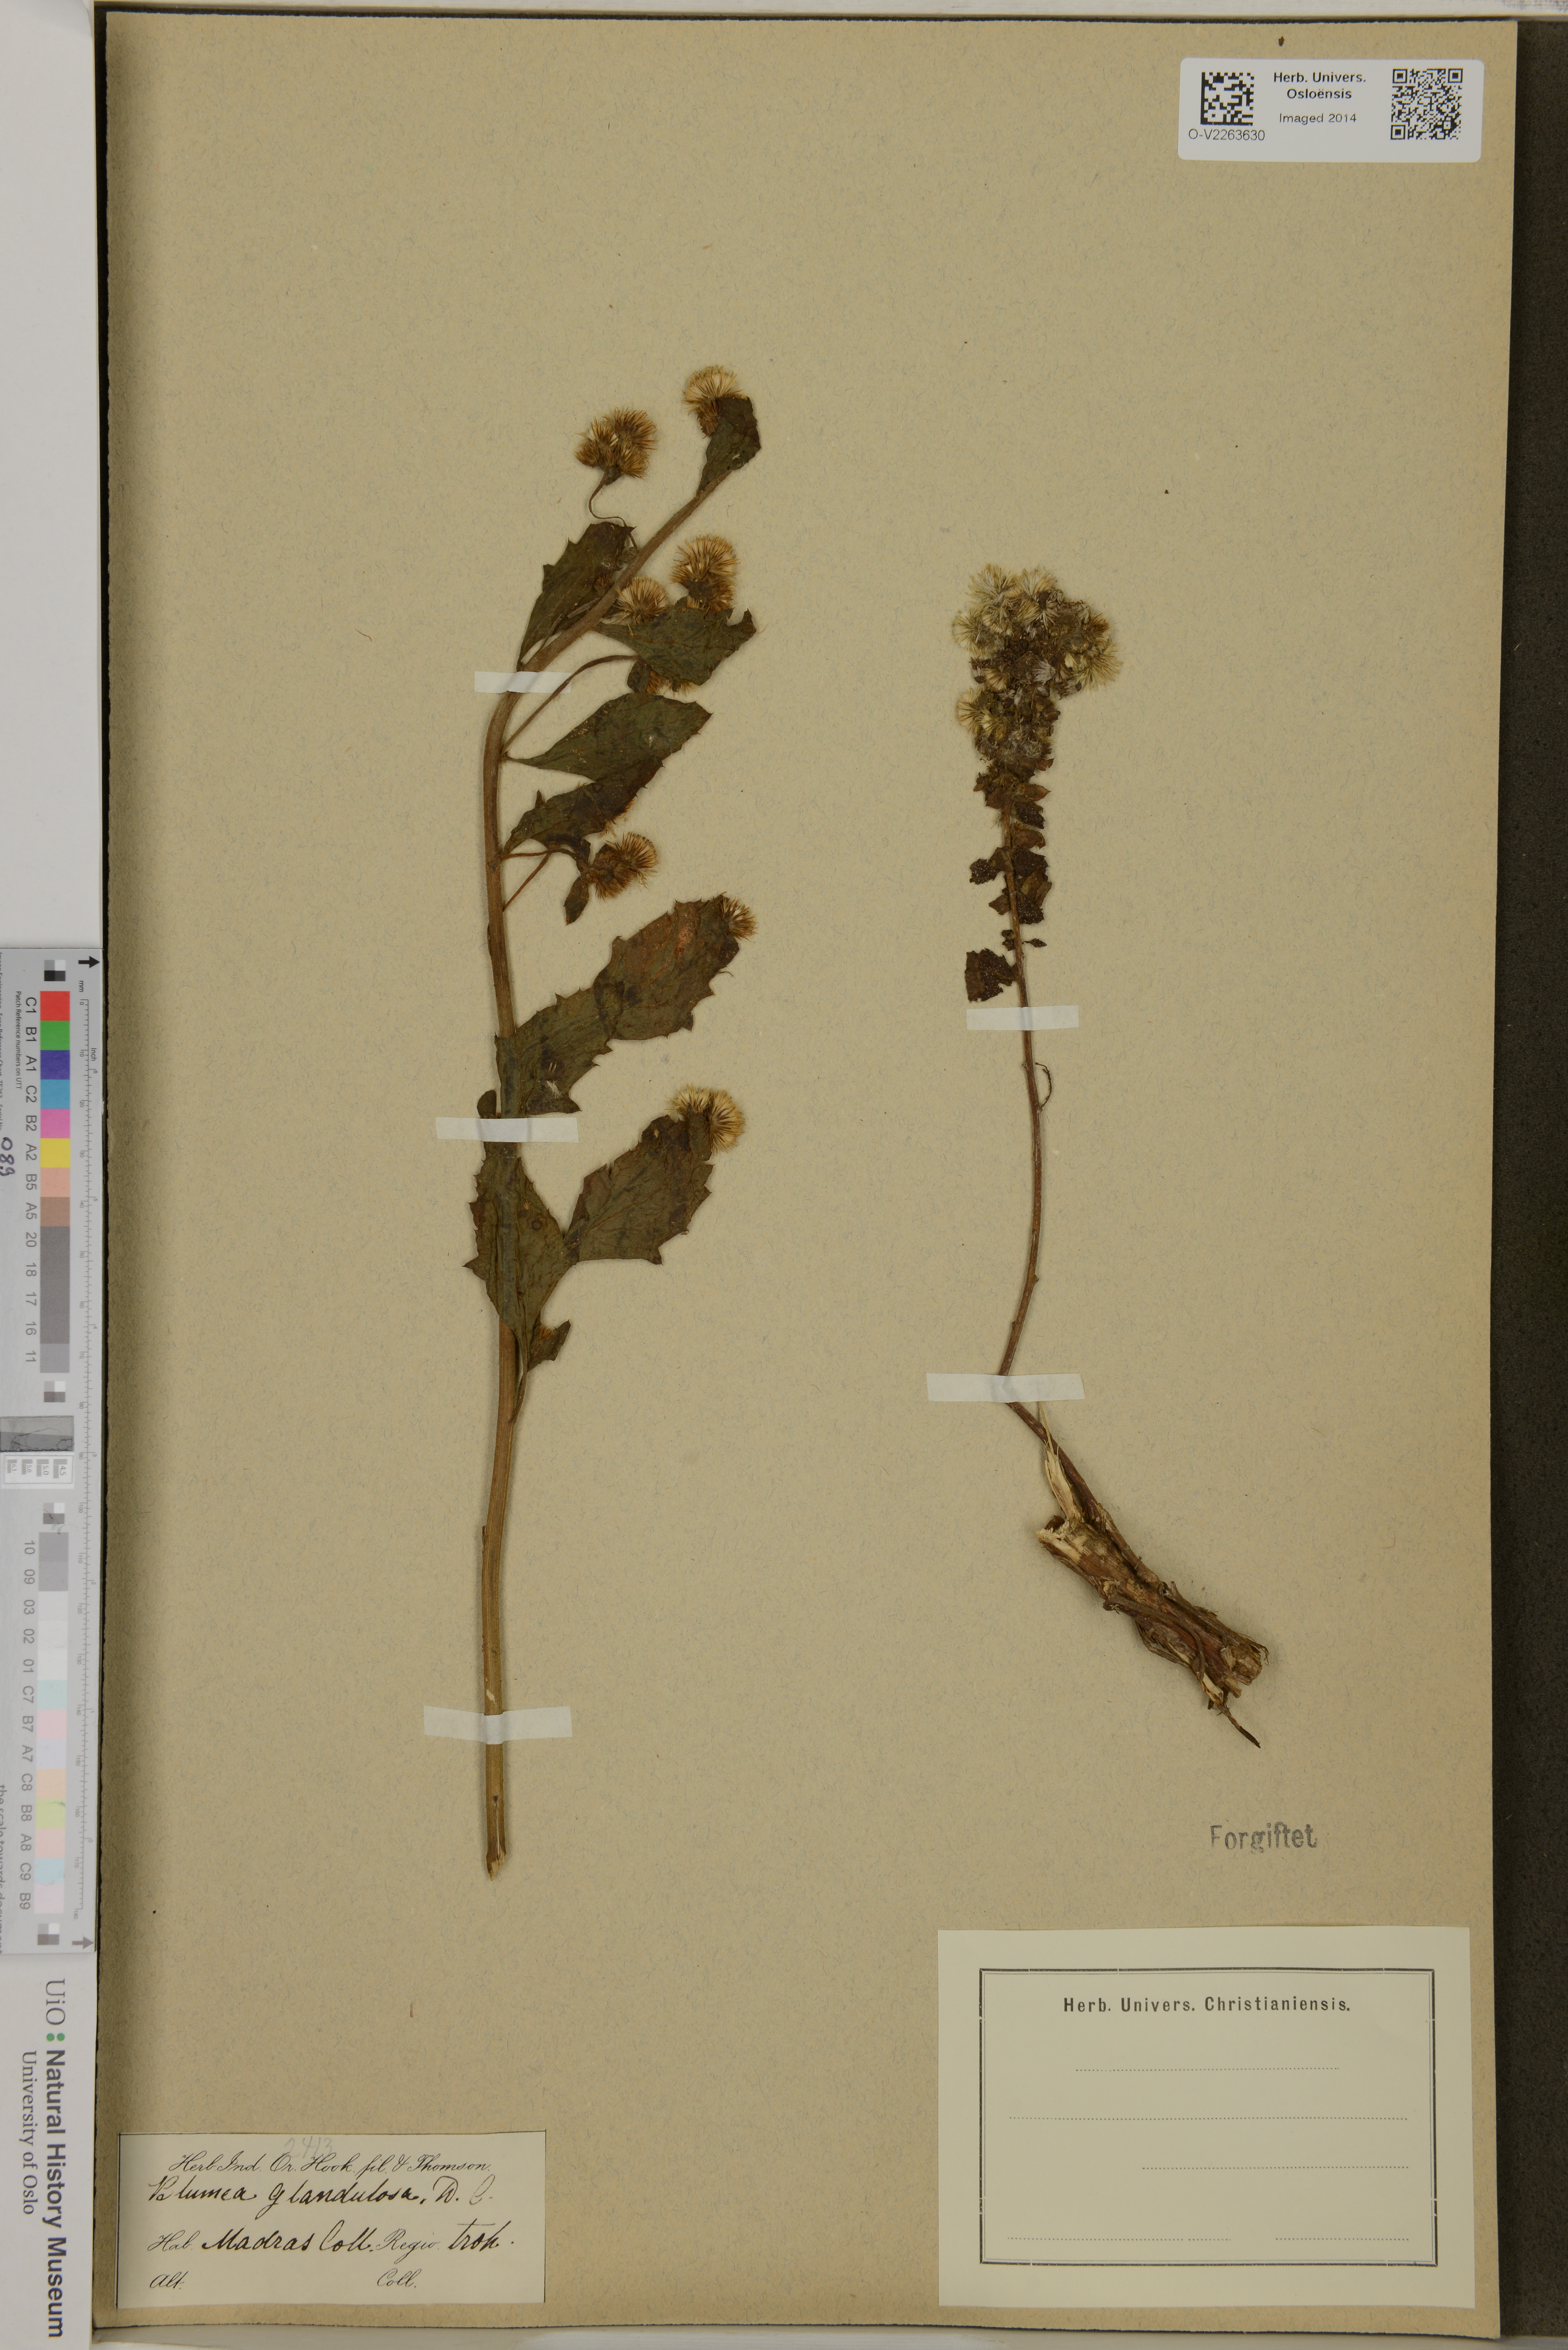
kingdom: Plantae
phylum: Tracheophyta
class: Magnoliopsida
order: Asterales
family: Asteraceae
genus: Blumea
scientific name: Blumea
